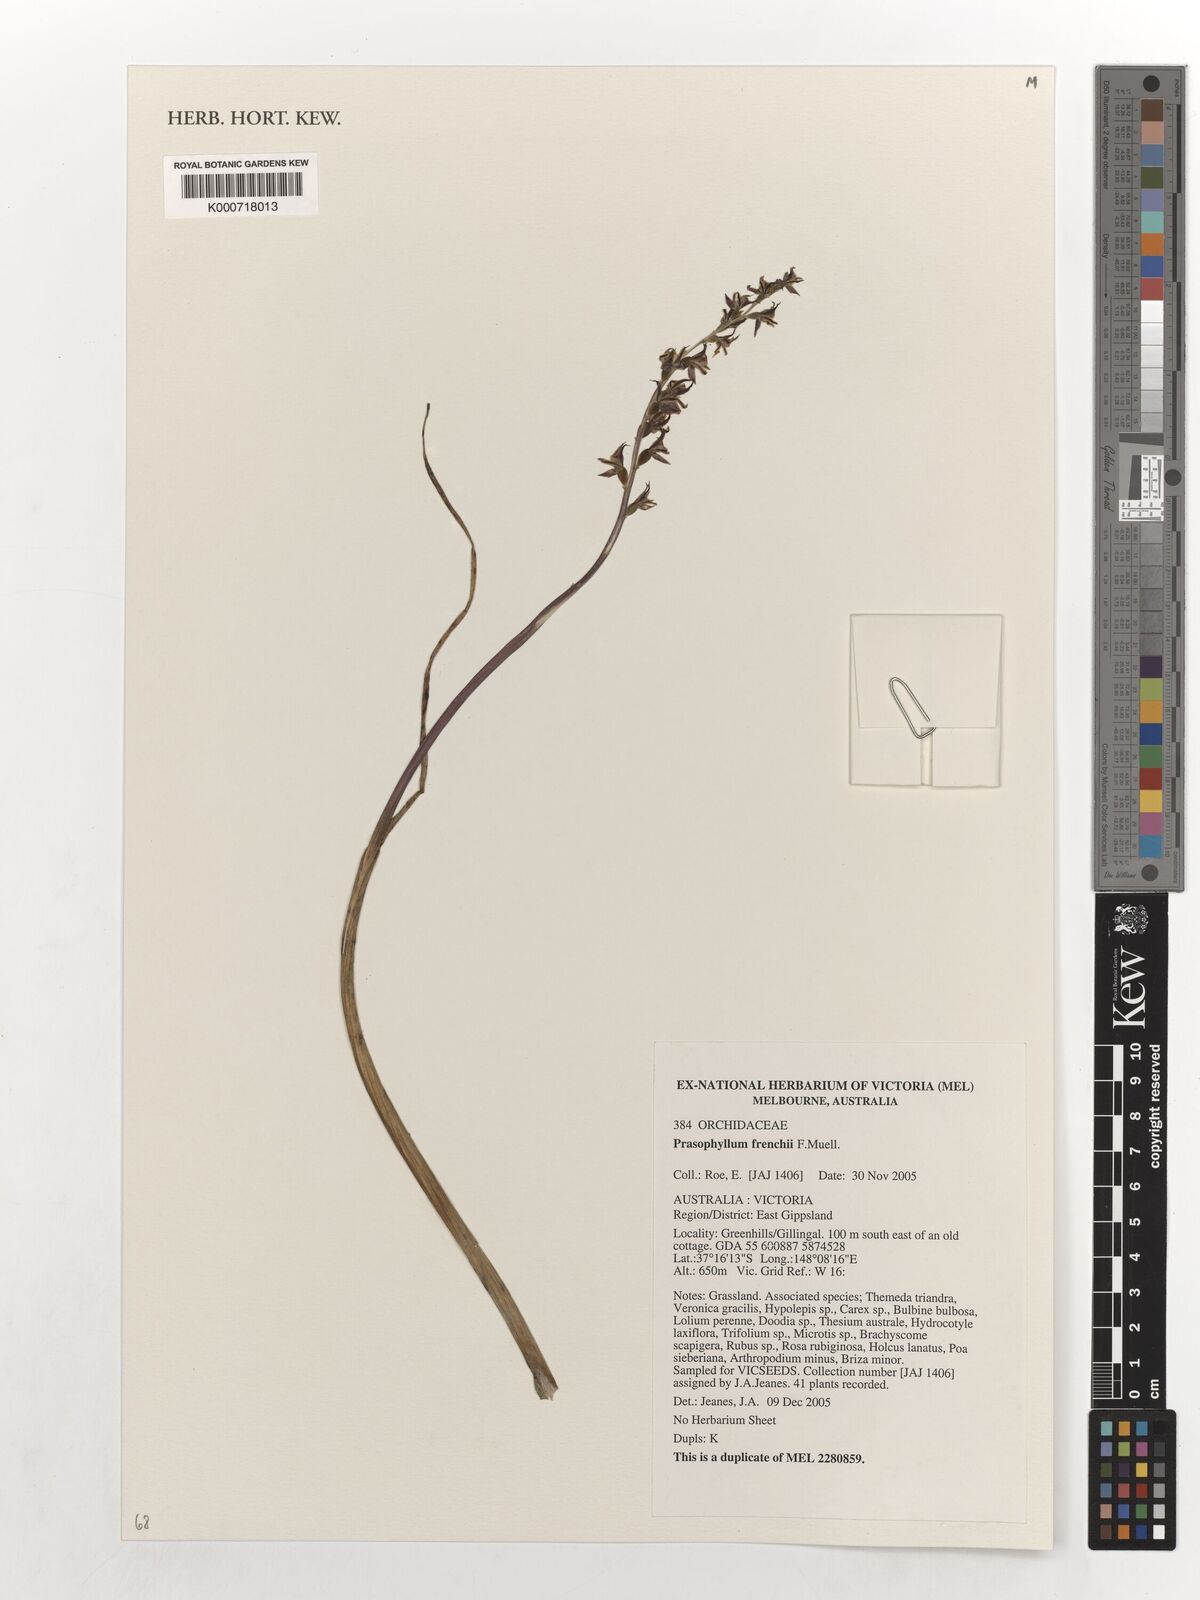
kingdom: Plantae
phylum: Tracheophyta
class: Liliopsida
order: Asparagales
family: Orchidaceae
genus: Prasophyllum
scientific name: Prasophyllum frenchii
